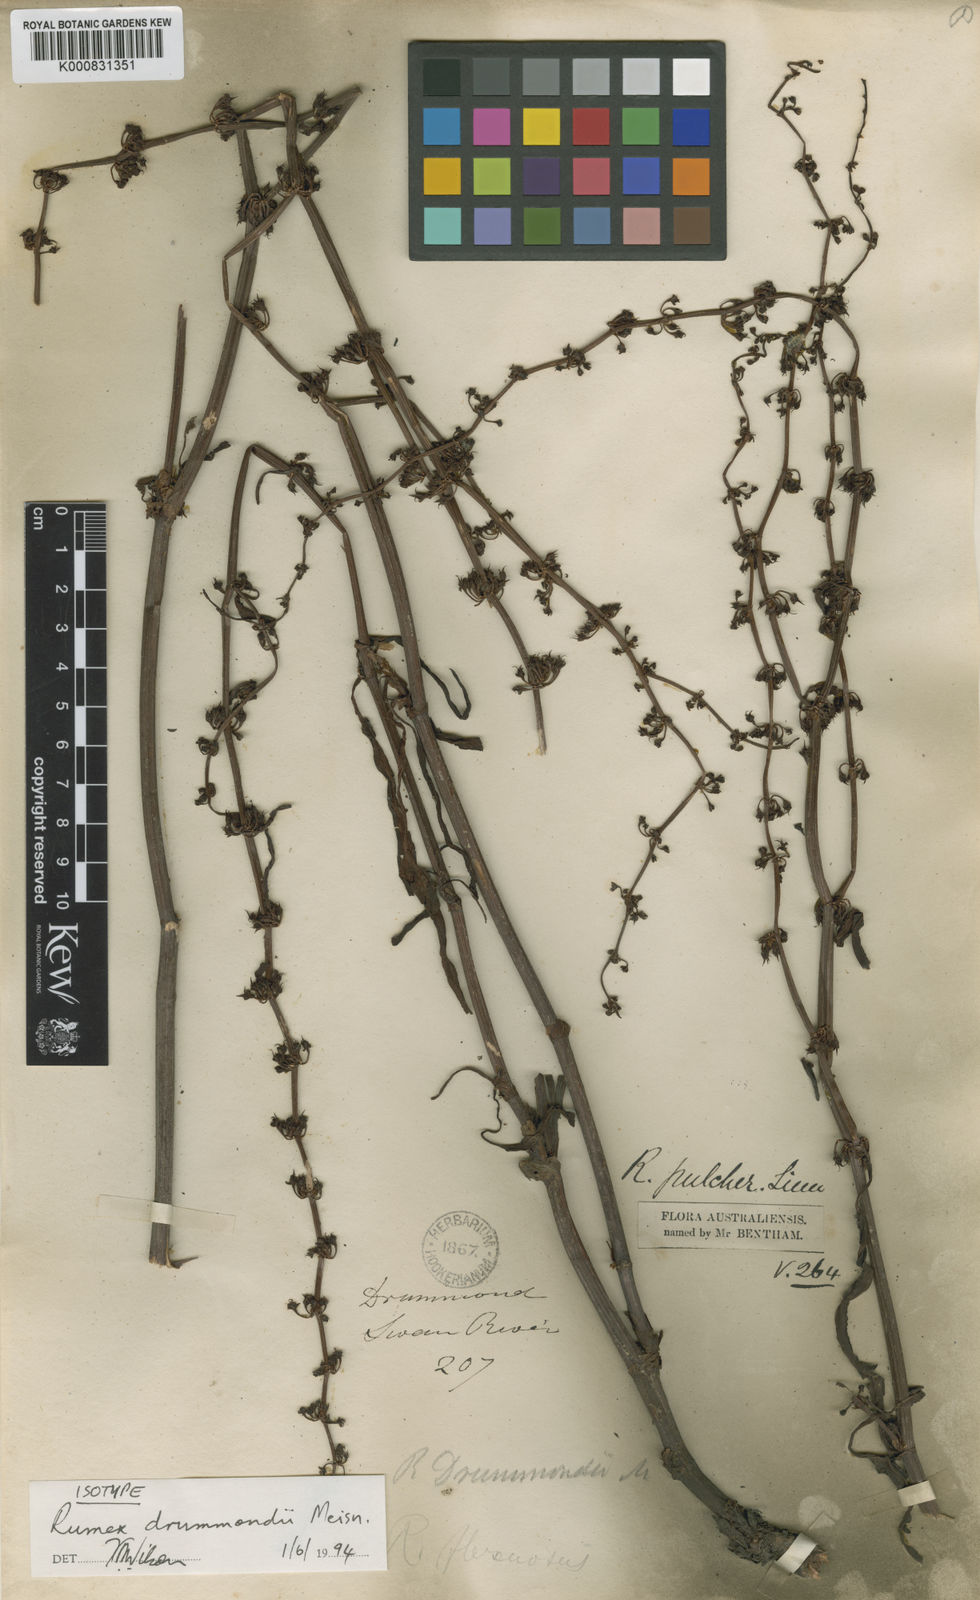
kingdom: Plantae
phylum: Tracheophyta
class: Magnoliopsida
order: Caryophyllales
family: Polygonaceae
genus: Rumex
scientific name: Rumex drummondii
